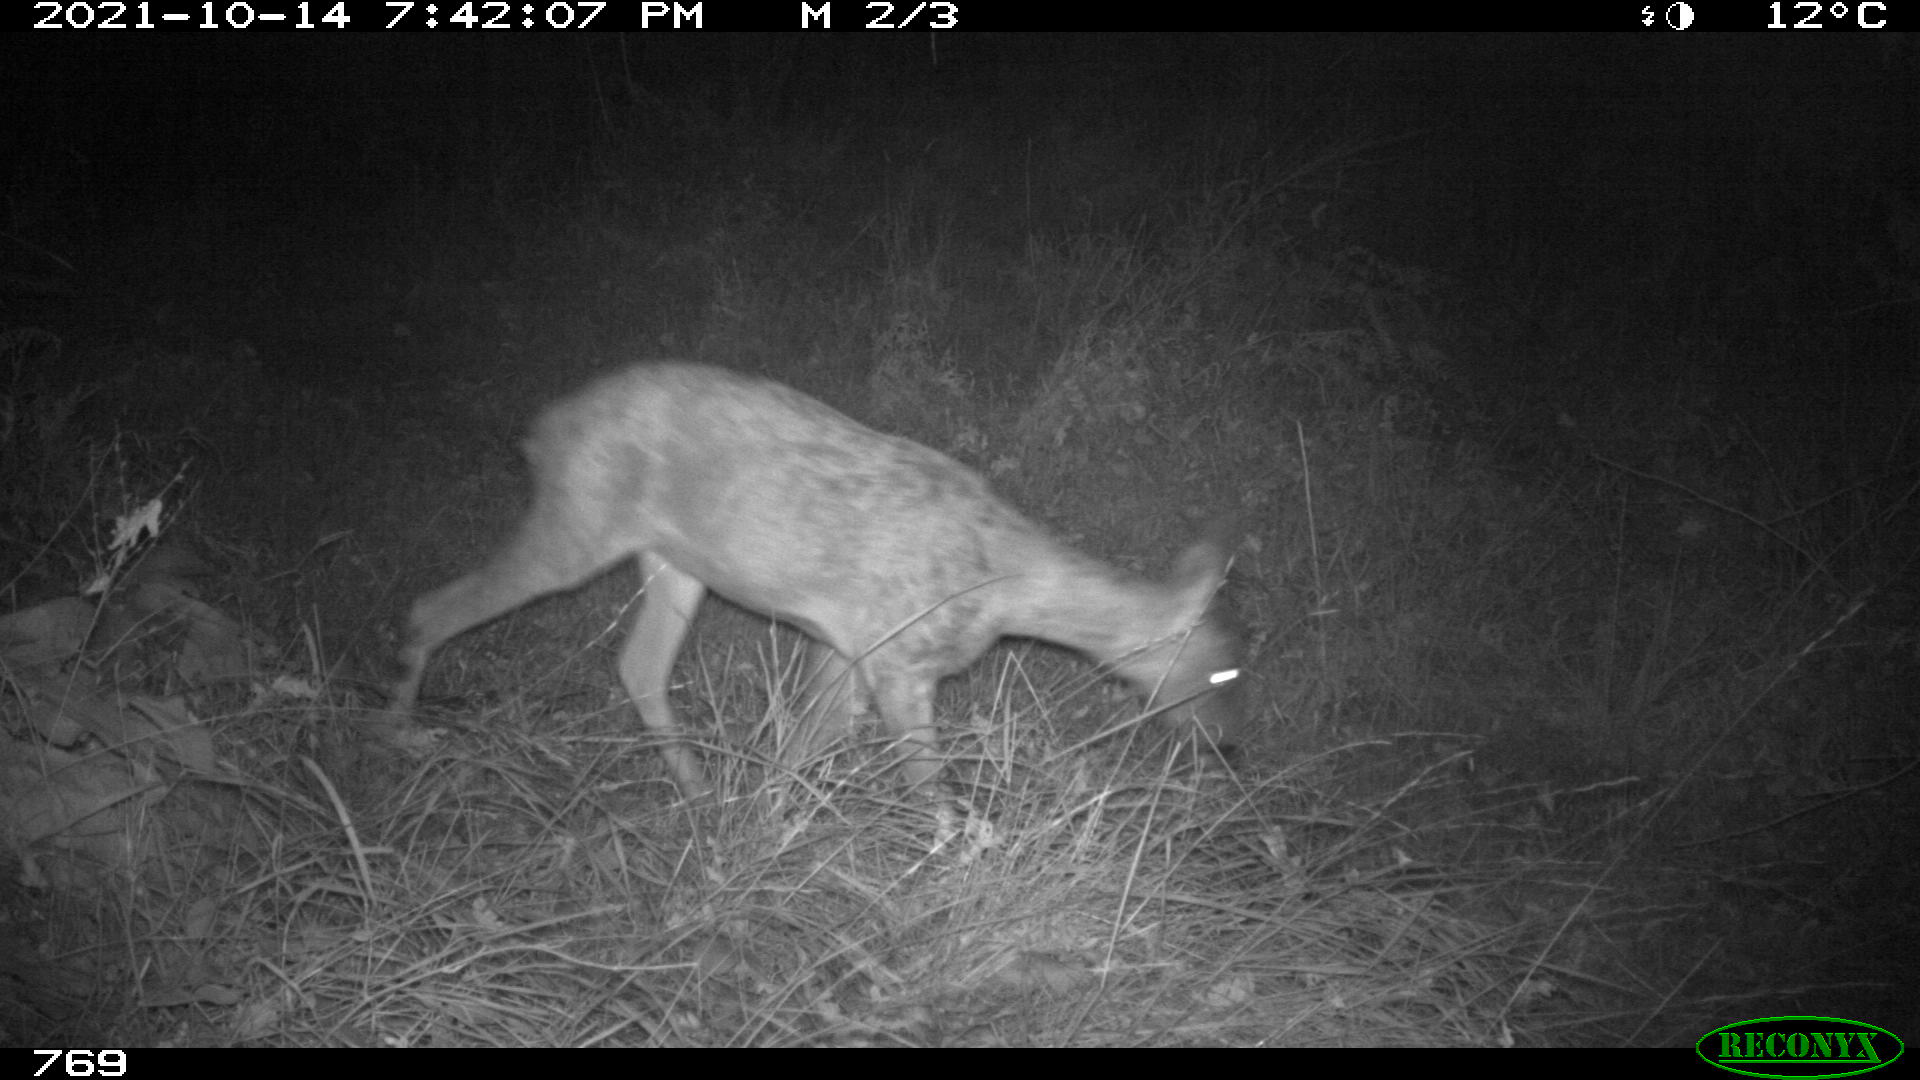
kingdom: Animalia
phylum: Chordata
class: Mammalia
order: Artiodactyla
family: Cervidae
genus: Capreolus
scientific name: Capreolus capreolus
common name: Western roe deer
